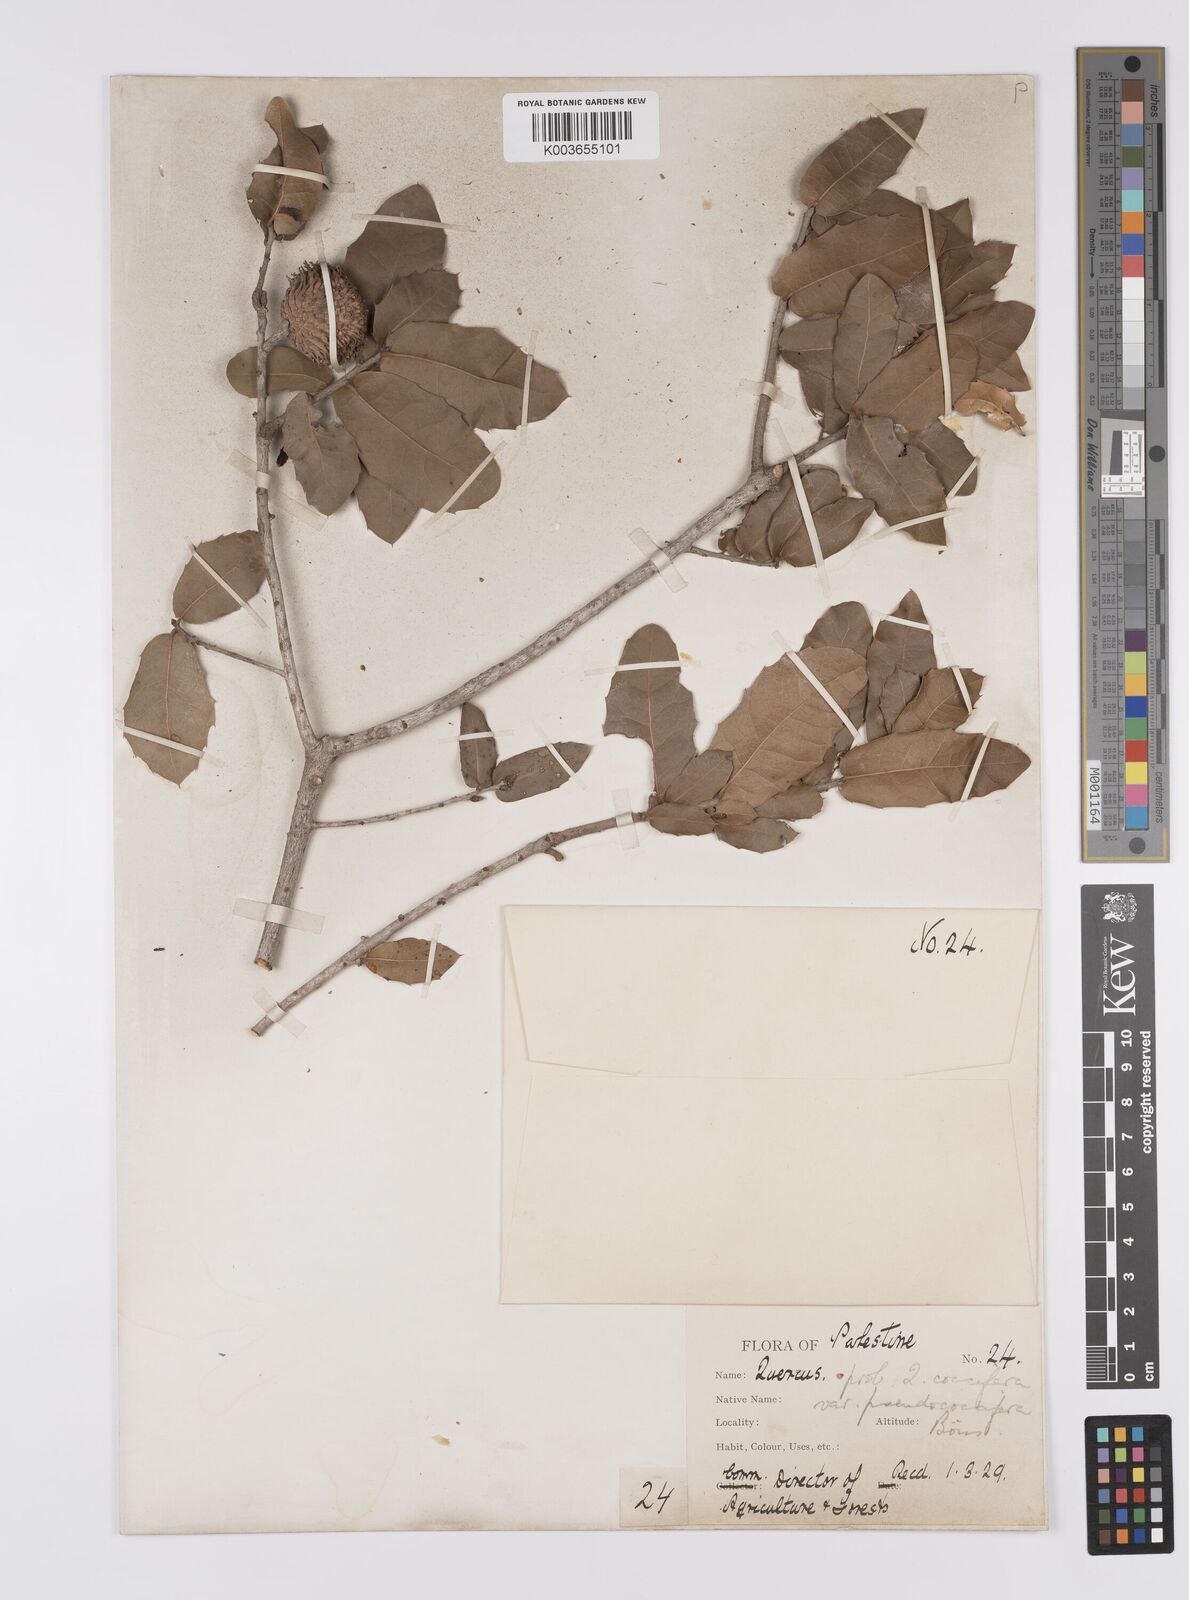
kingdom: Plantae
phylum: Tracheophyta
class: Magnoliopsida
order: Fagales
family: Fagaceae
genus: Quercus
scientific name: Quercus coccifera
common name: Kermes oak
